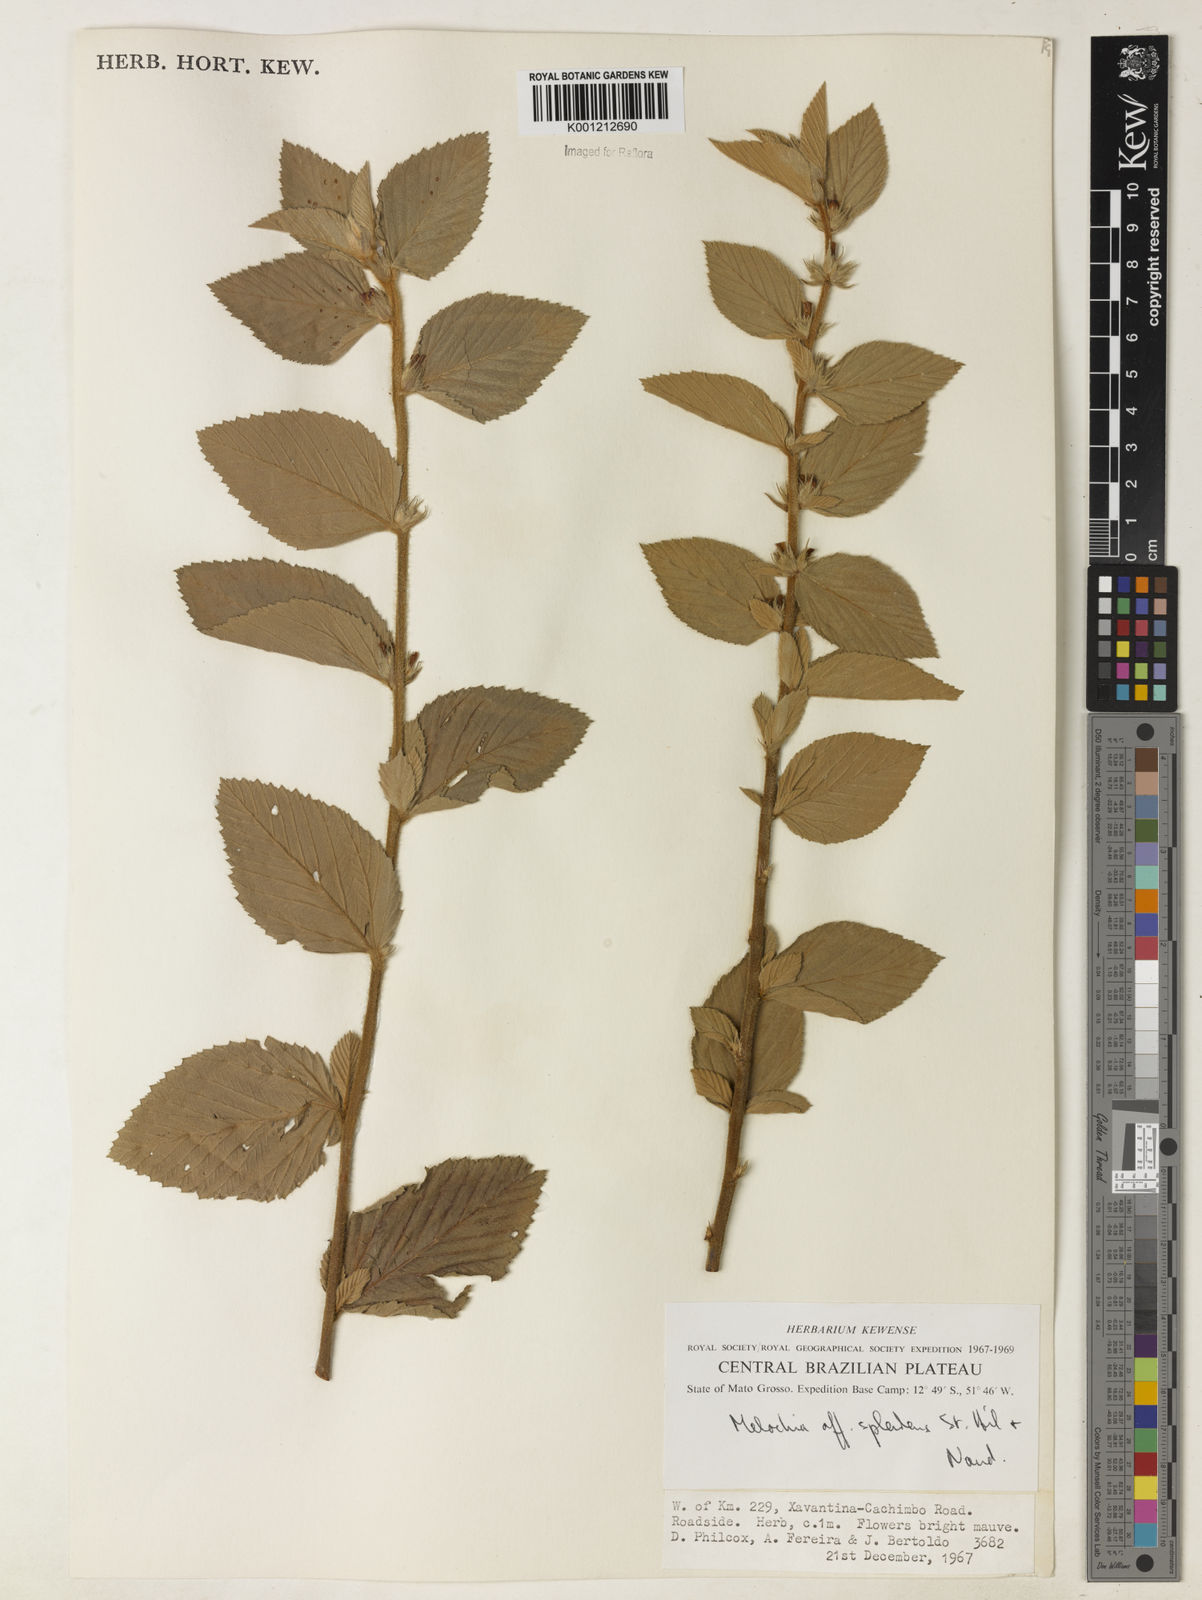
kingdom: Plantae
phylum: Tracheophyta
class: Magnoliopsida
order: Malvales
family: Malvaceae
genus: Melochia
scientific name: Melochia splendens
